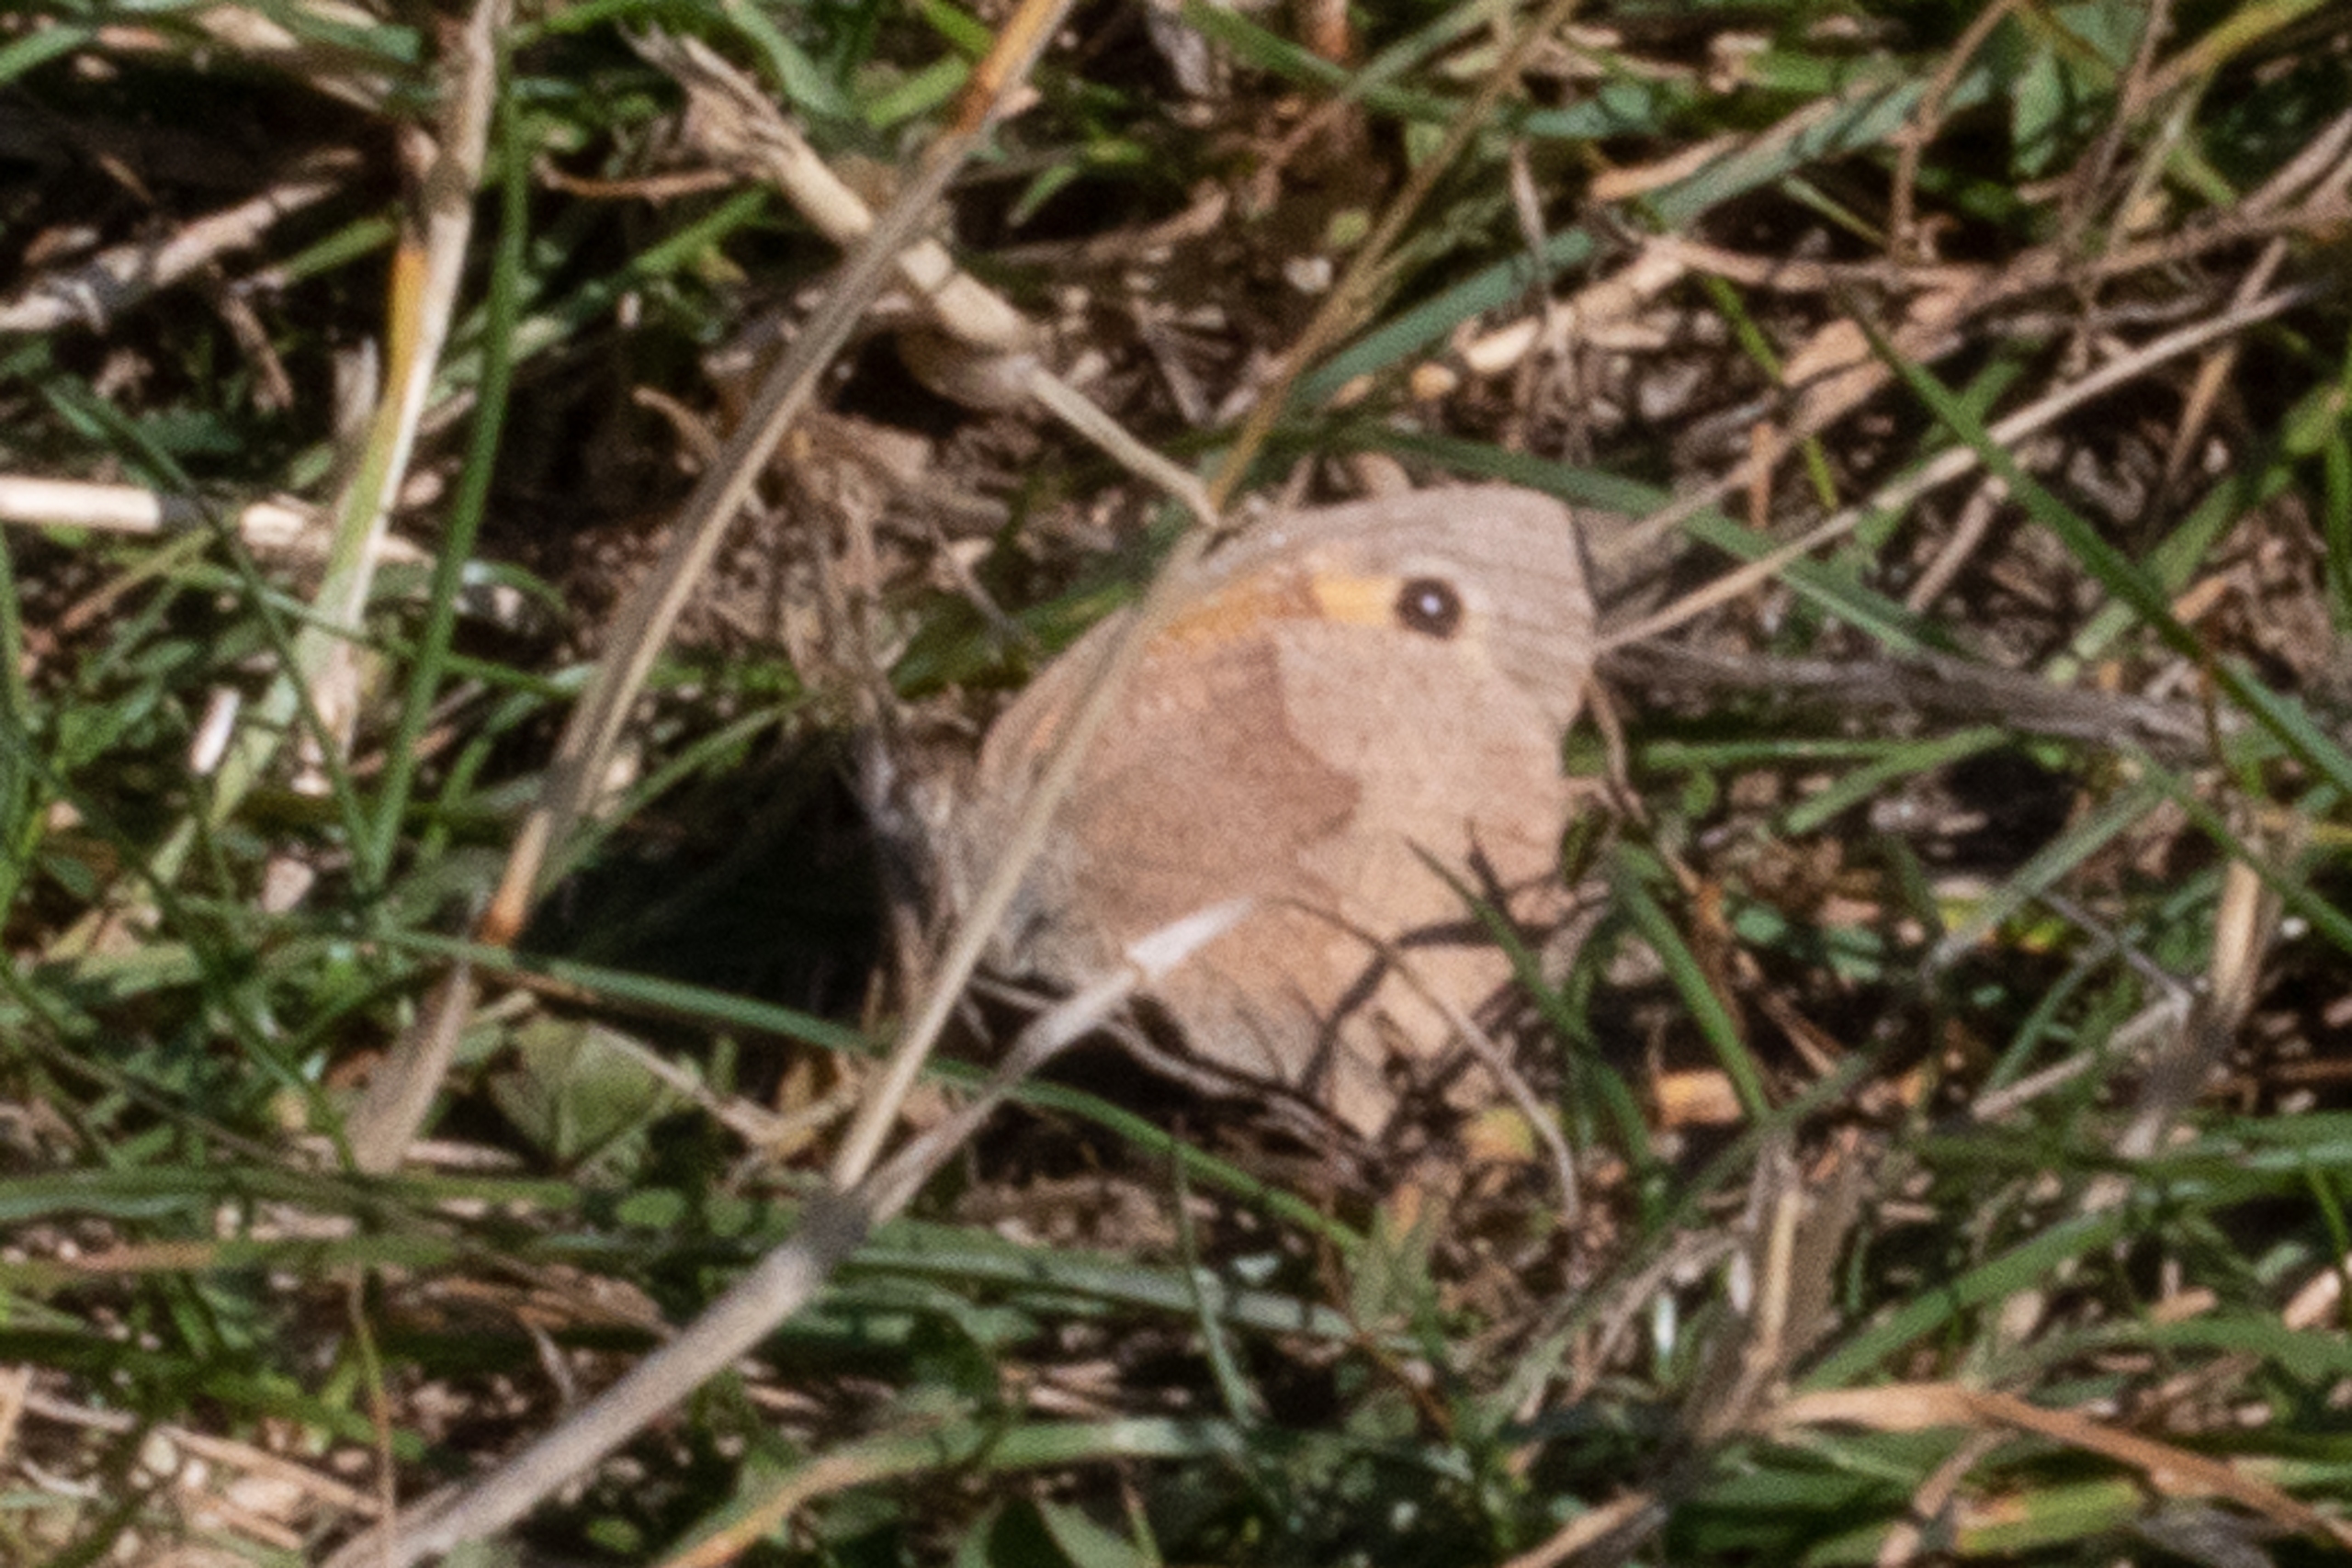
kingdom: Animalia
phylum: Arthropoda
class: Insecta
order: Lepidoptera
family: Nymphalidae
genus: Maniola
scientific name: Maniola jurtina
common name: Græsrandøje
